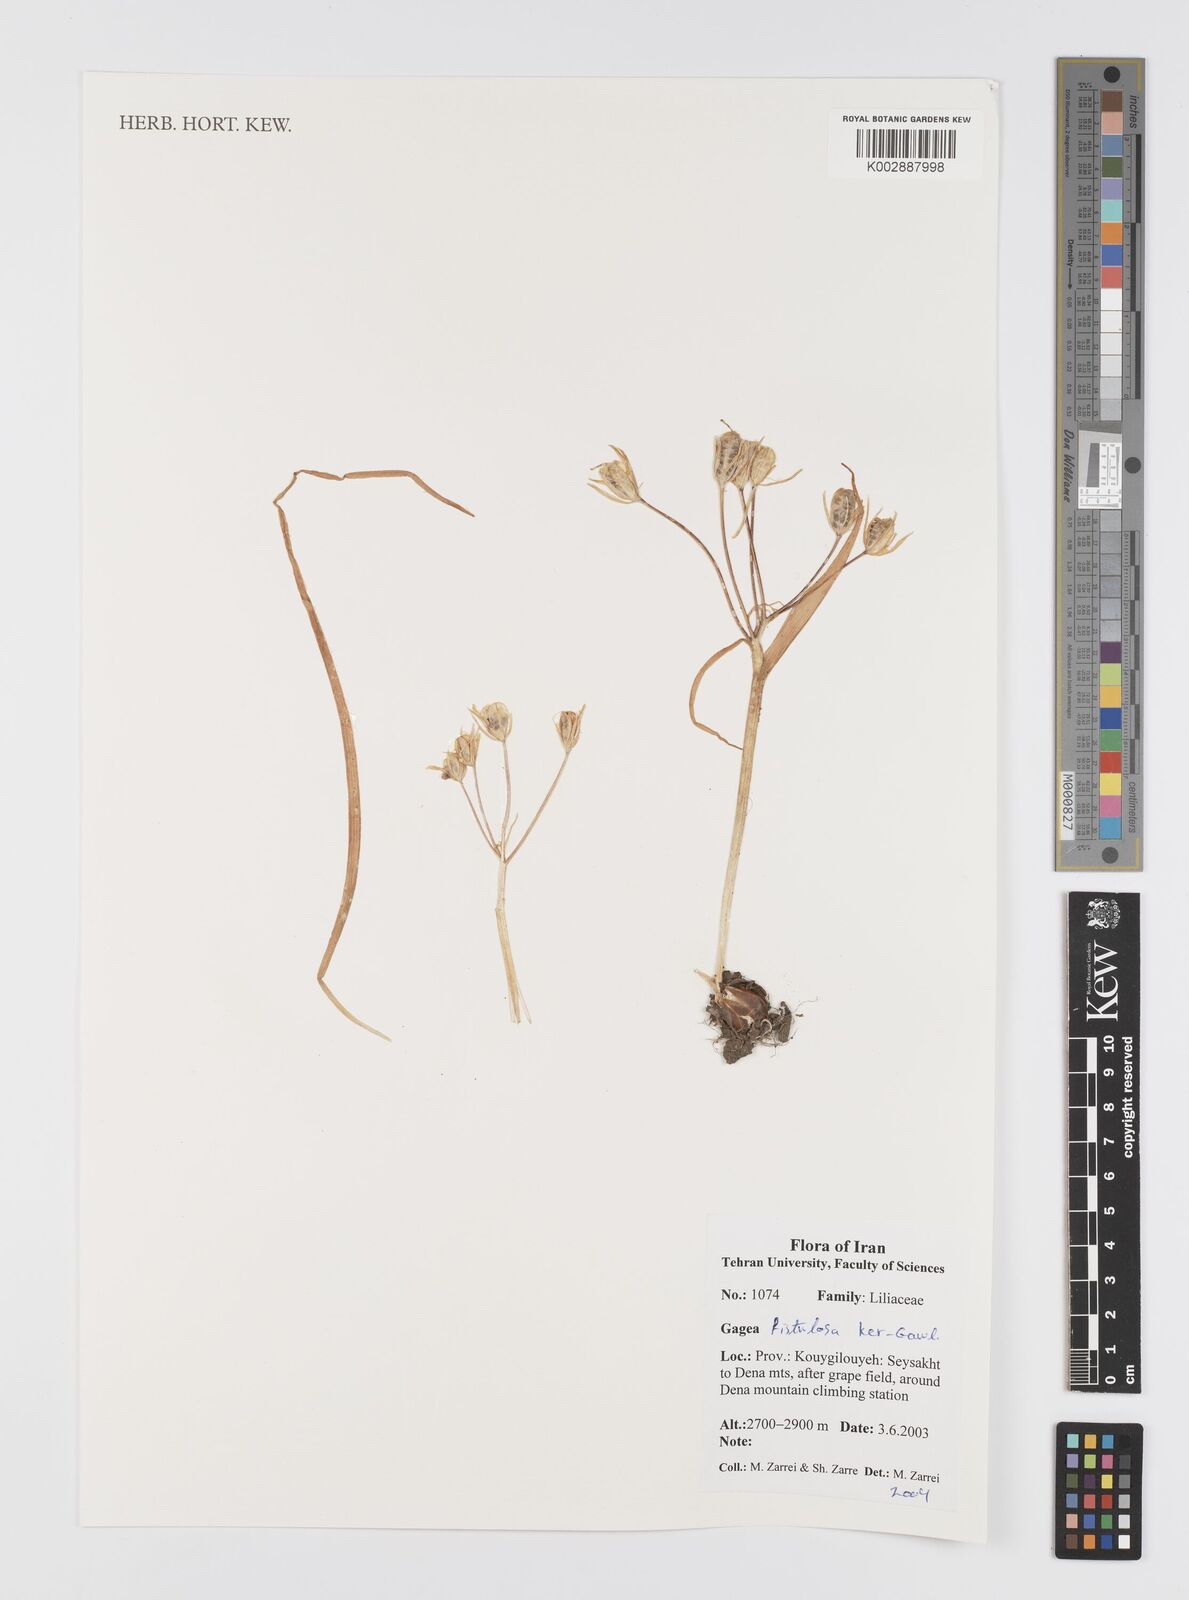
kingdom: Plantae
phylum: Tracheophyta
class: Liliopsida
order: Liliales
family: Liliaceae
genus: Gagea
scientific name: Gagea bohemica
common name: Early star-of-bethlehem
